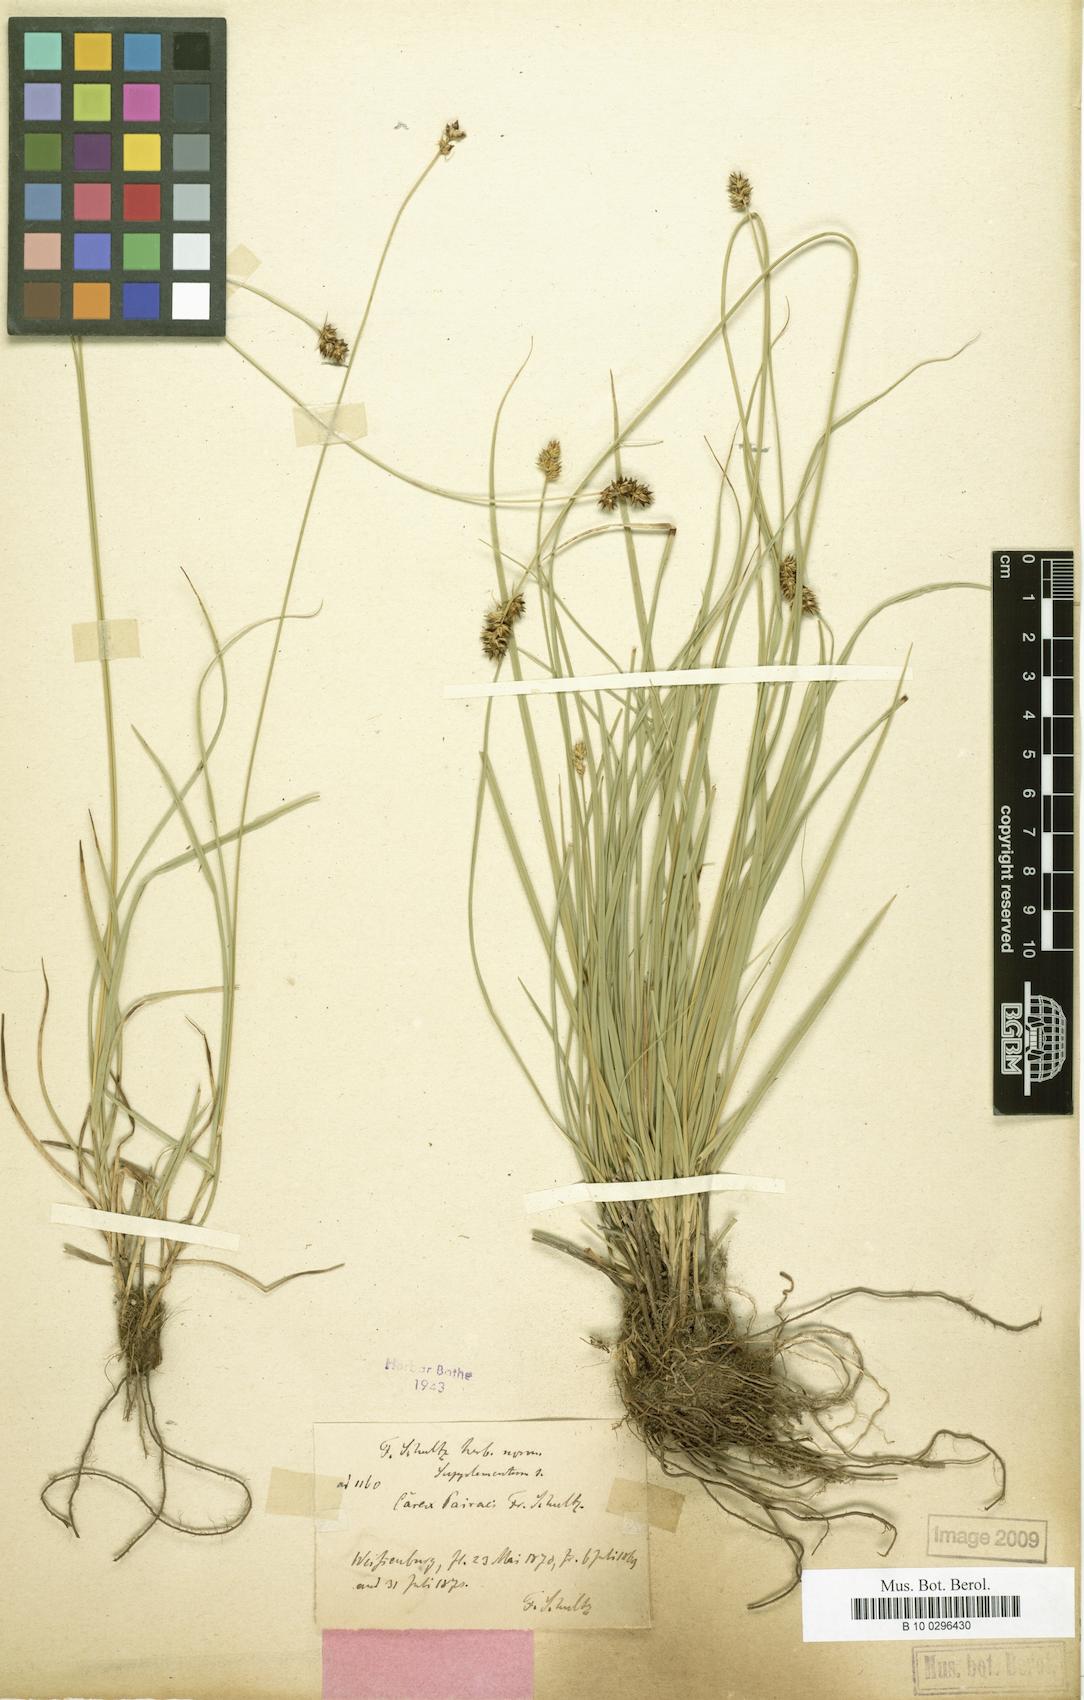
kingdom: Plantae
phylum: Tracheophyta
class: Liliopsida
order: Poales
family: Cyperaceae
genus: Carex
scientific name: Carex pairae
